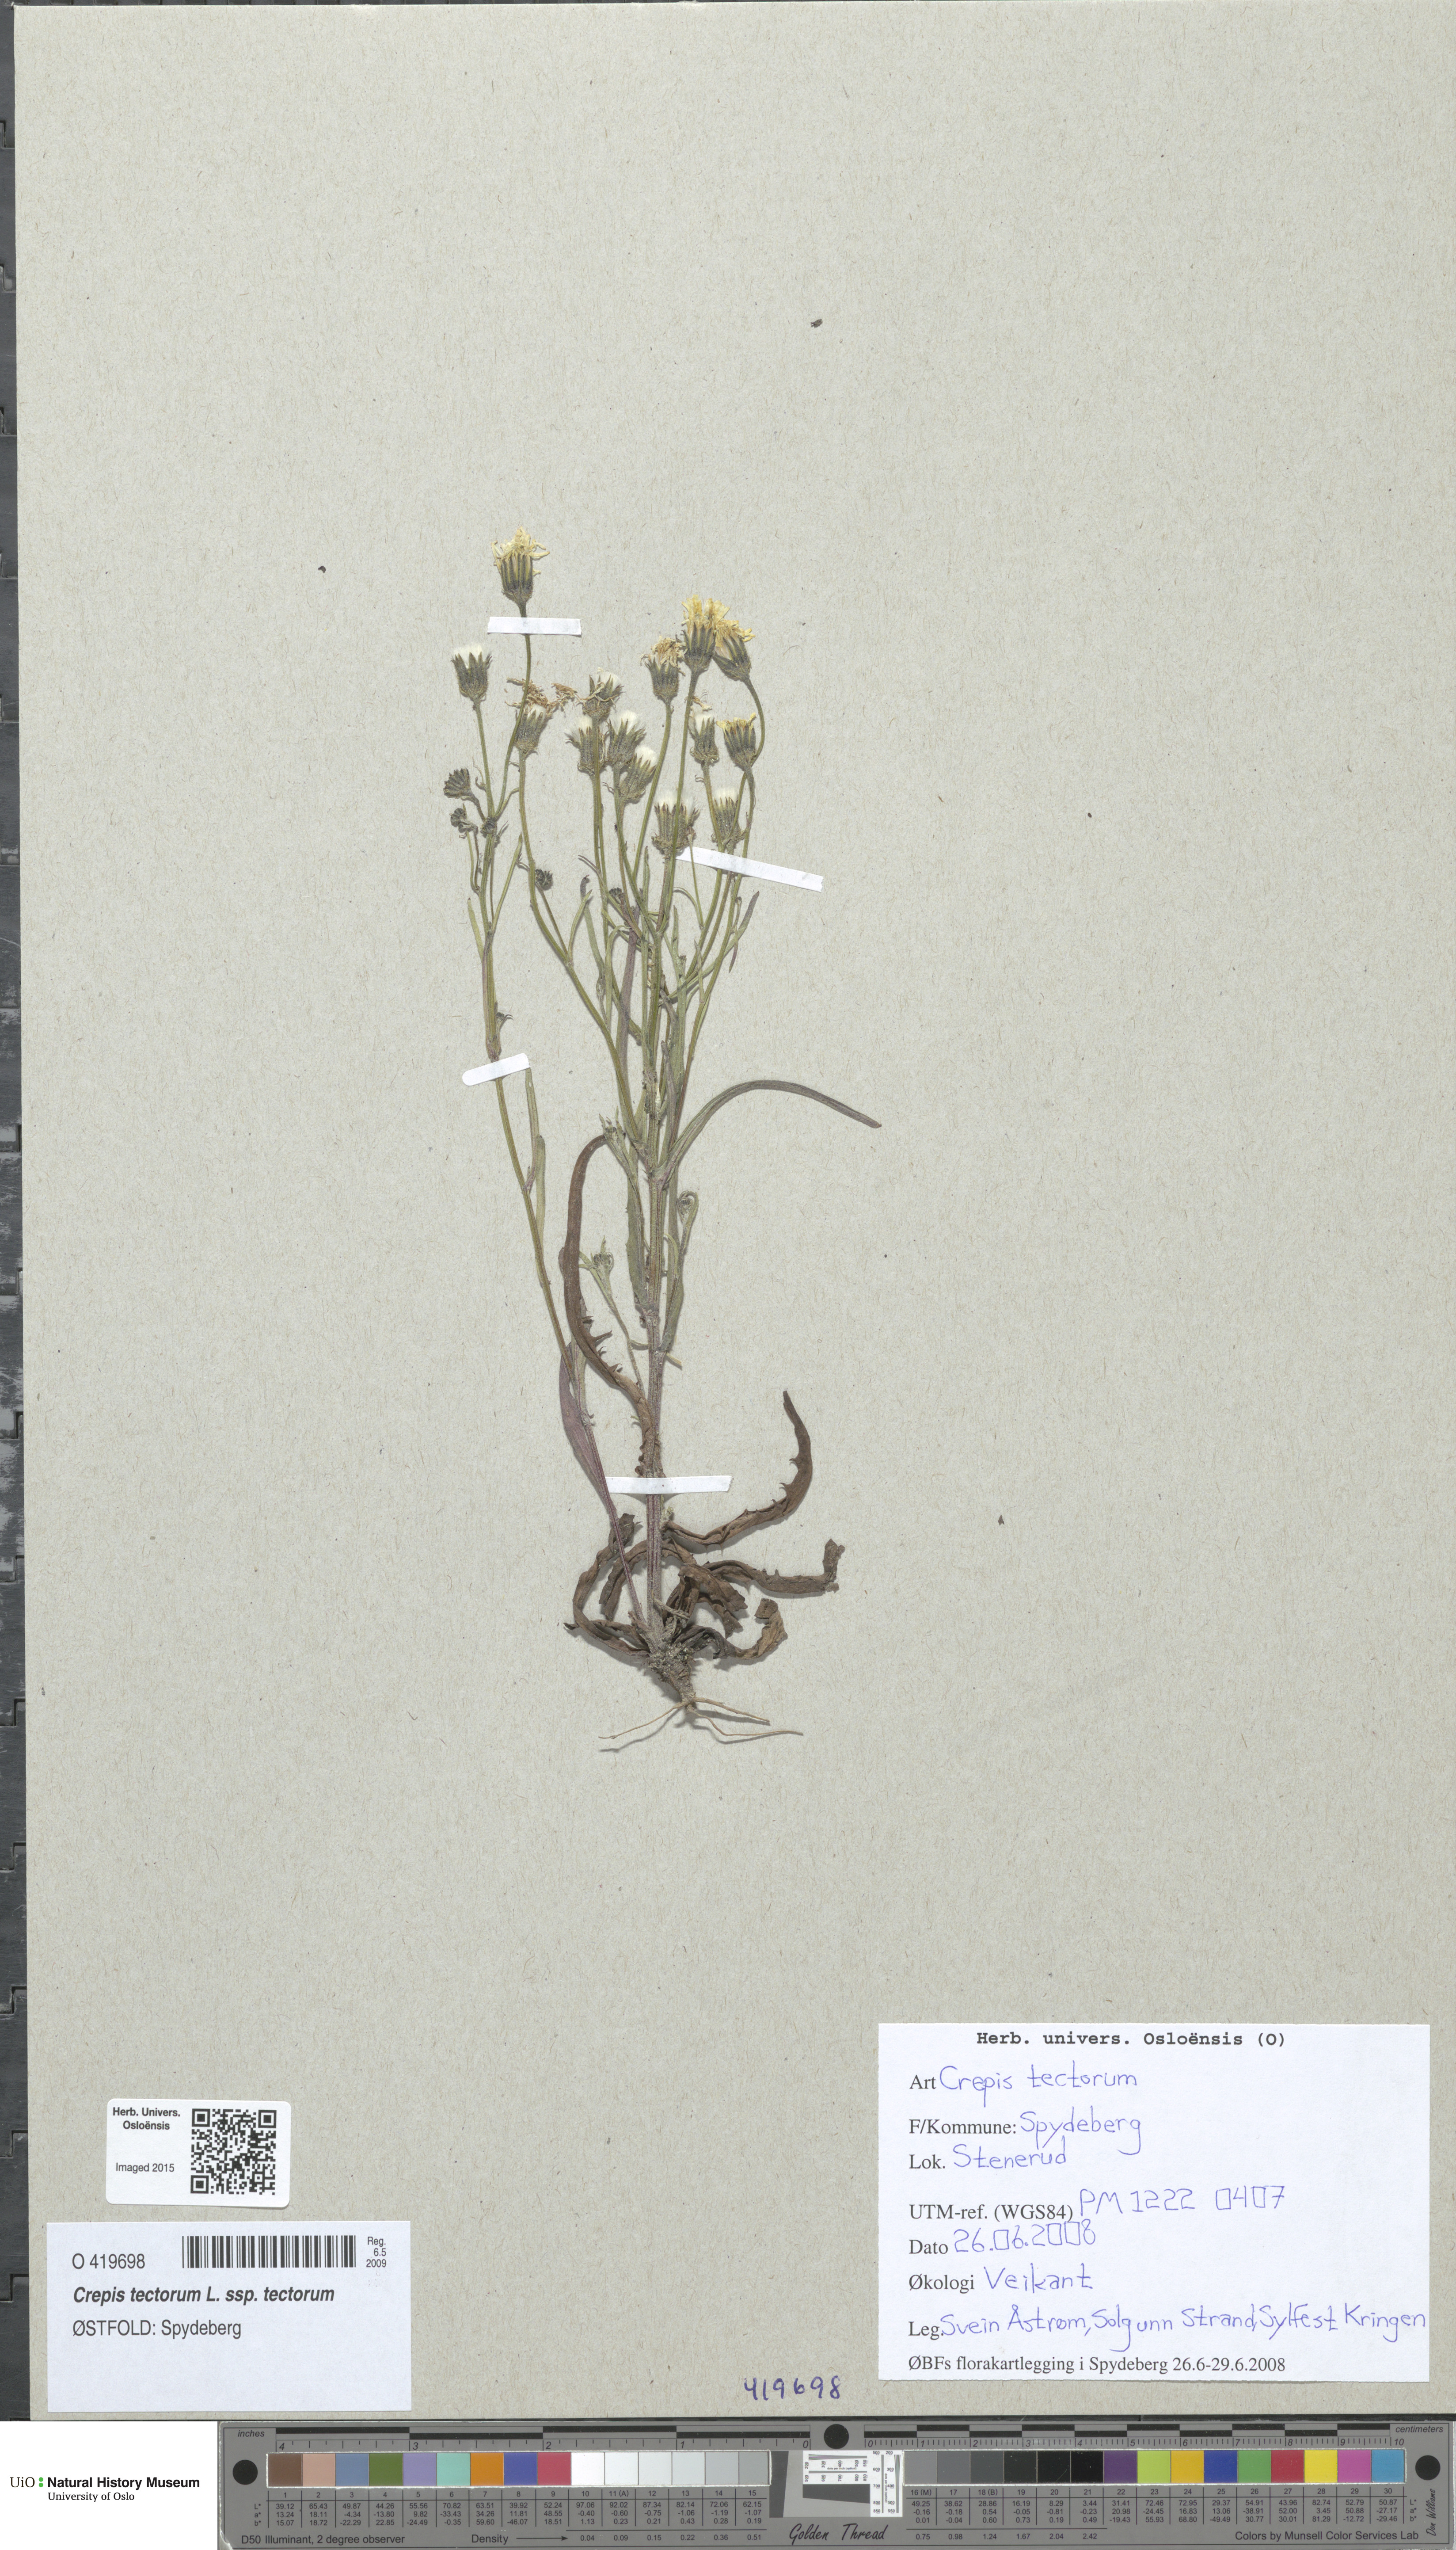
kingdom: Plantae
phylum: Tracheophyta
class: Magnoliopsida
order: Asterales
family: Asteraceae
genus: Crepis
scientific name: Crepis tectorum
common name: Narrow-leaved hawk's-beard
